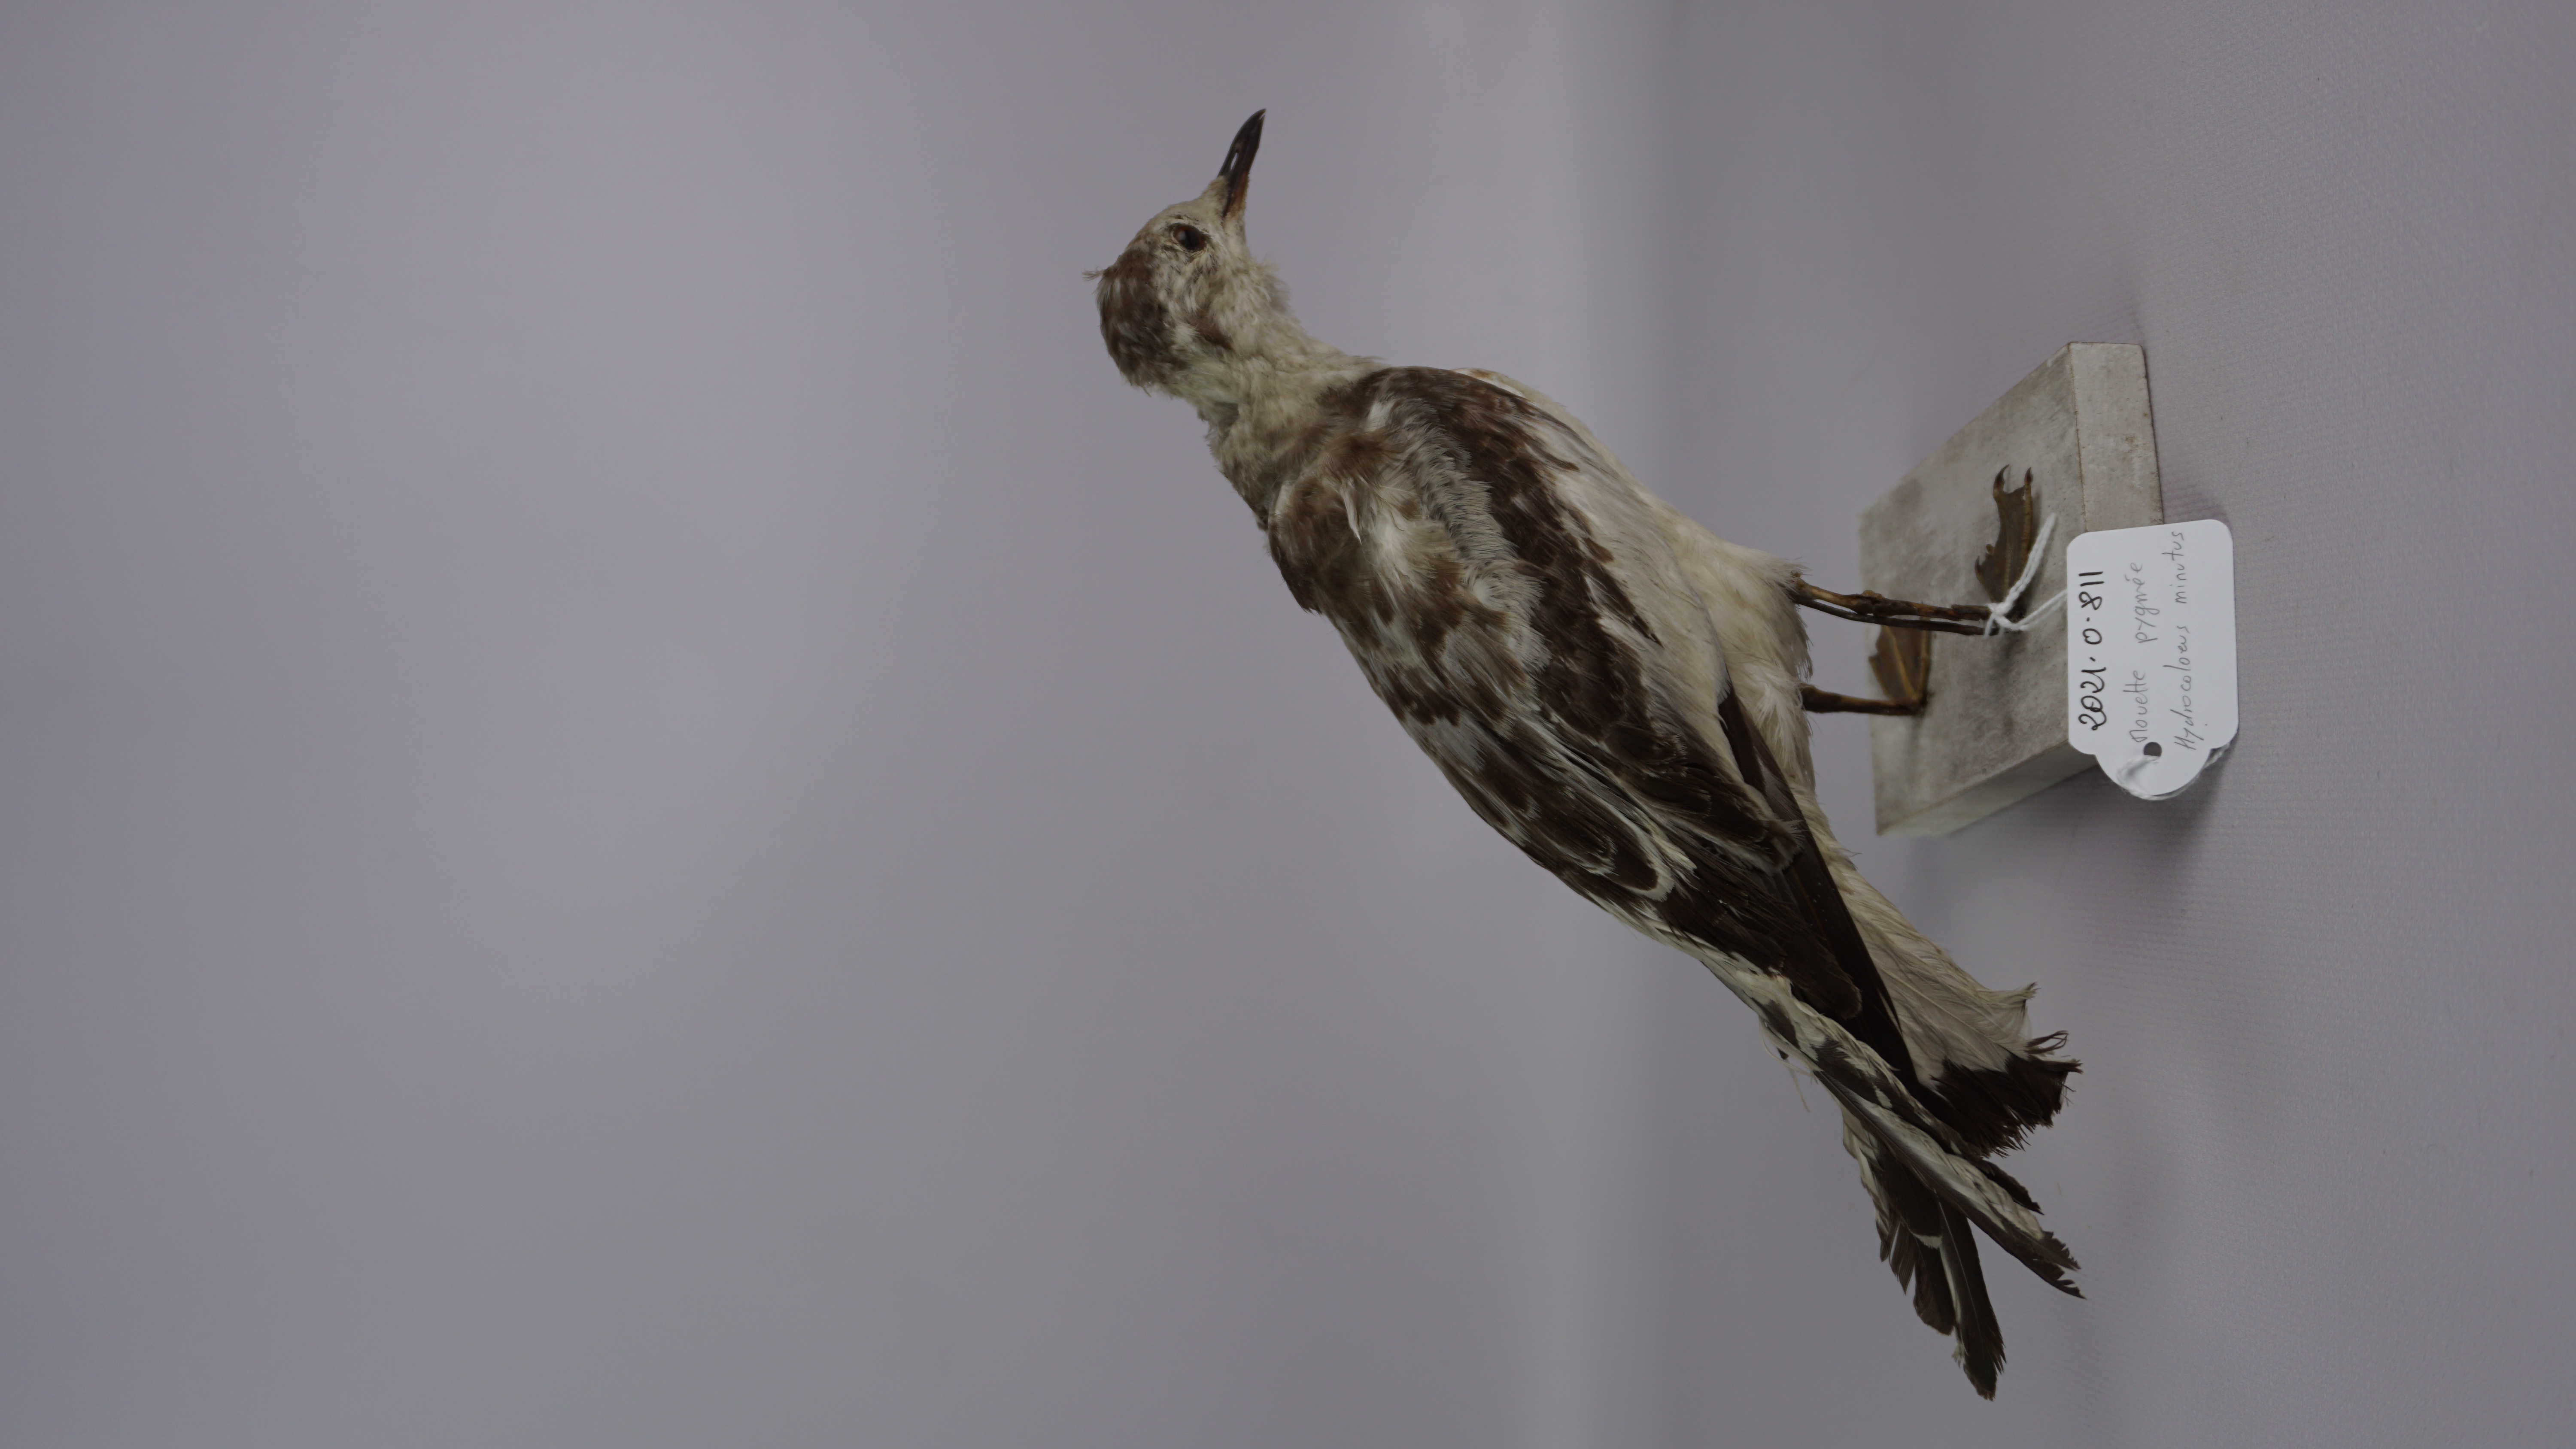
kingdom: Animalia
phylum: Chordata
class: Aves
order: Charadriiformes
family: Laridae
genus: Hydrocoloeus
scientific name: Hydrocoloeus minutus
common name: Little gull
